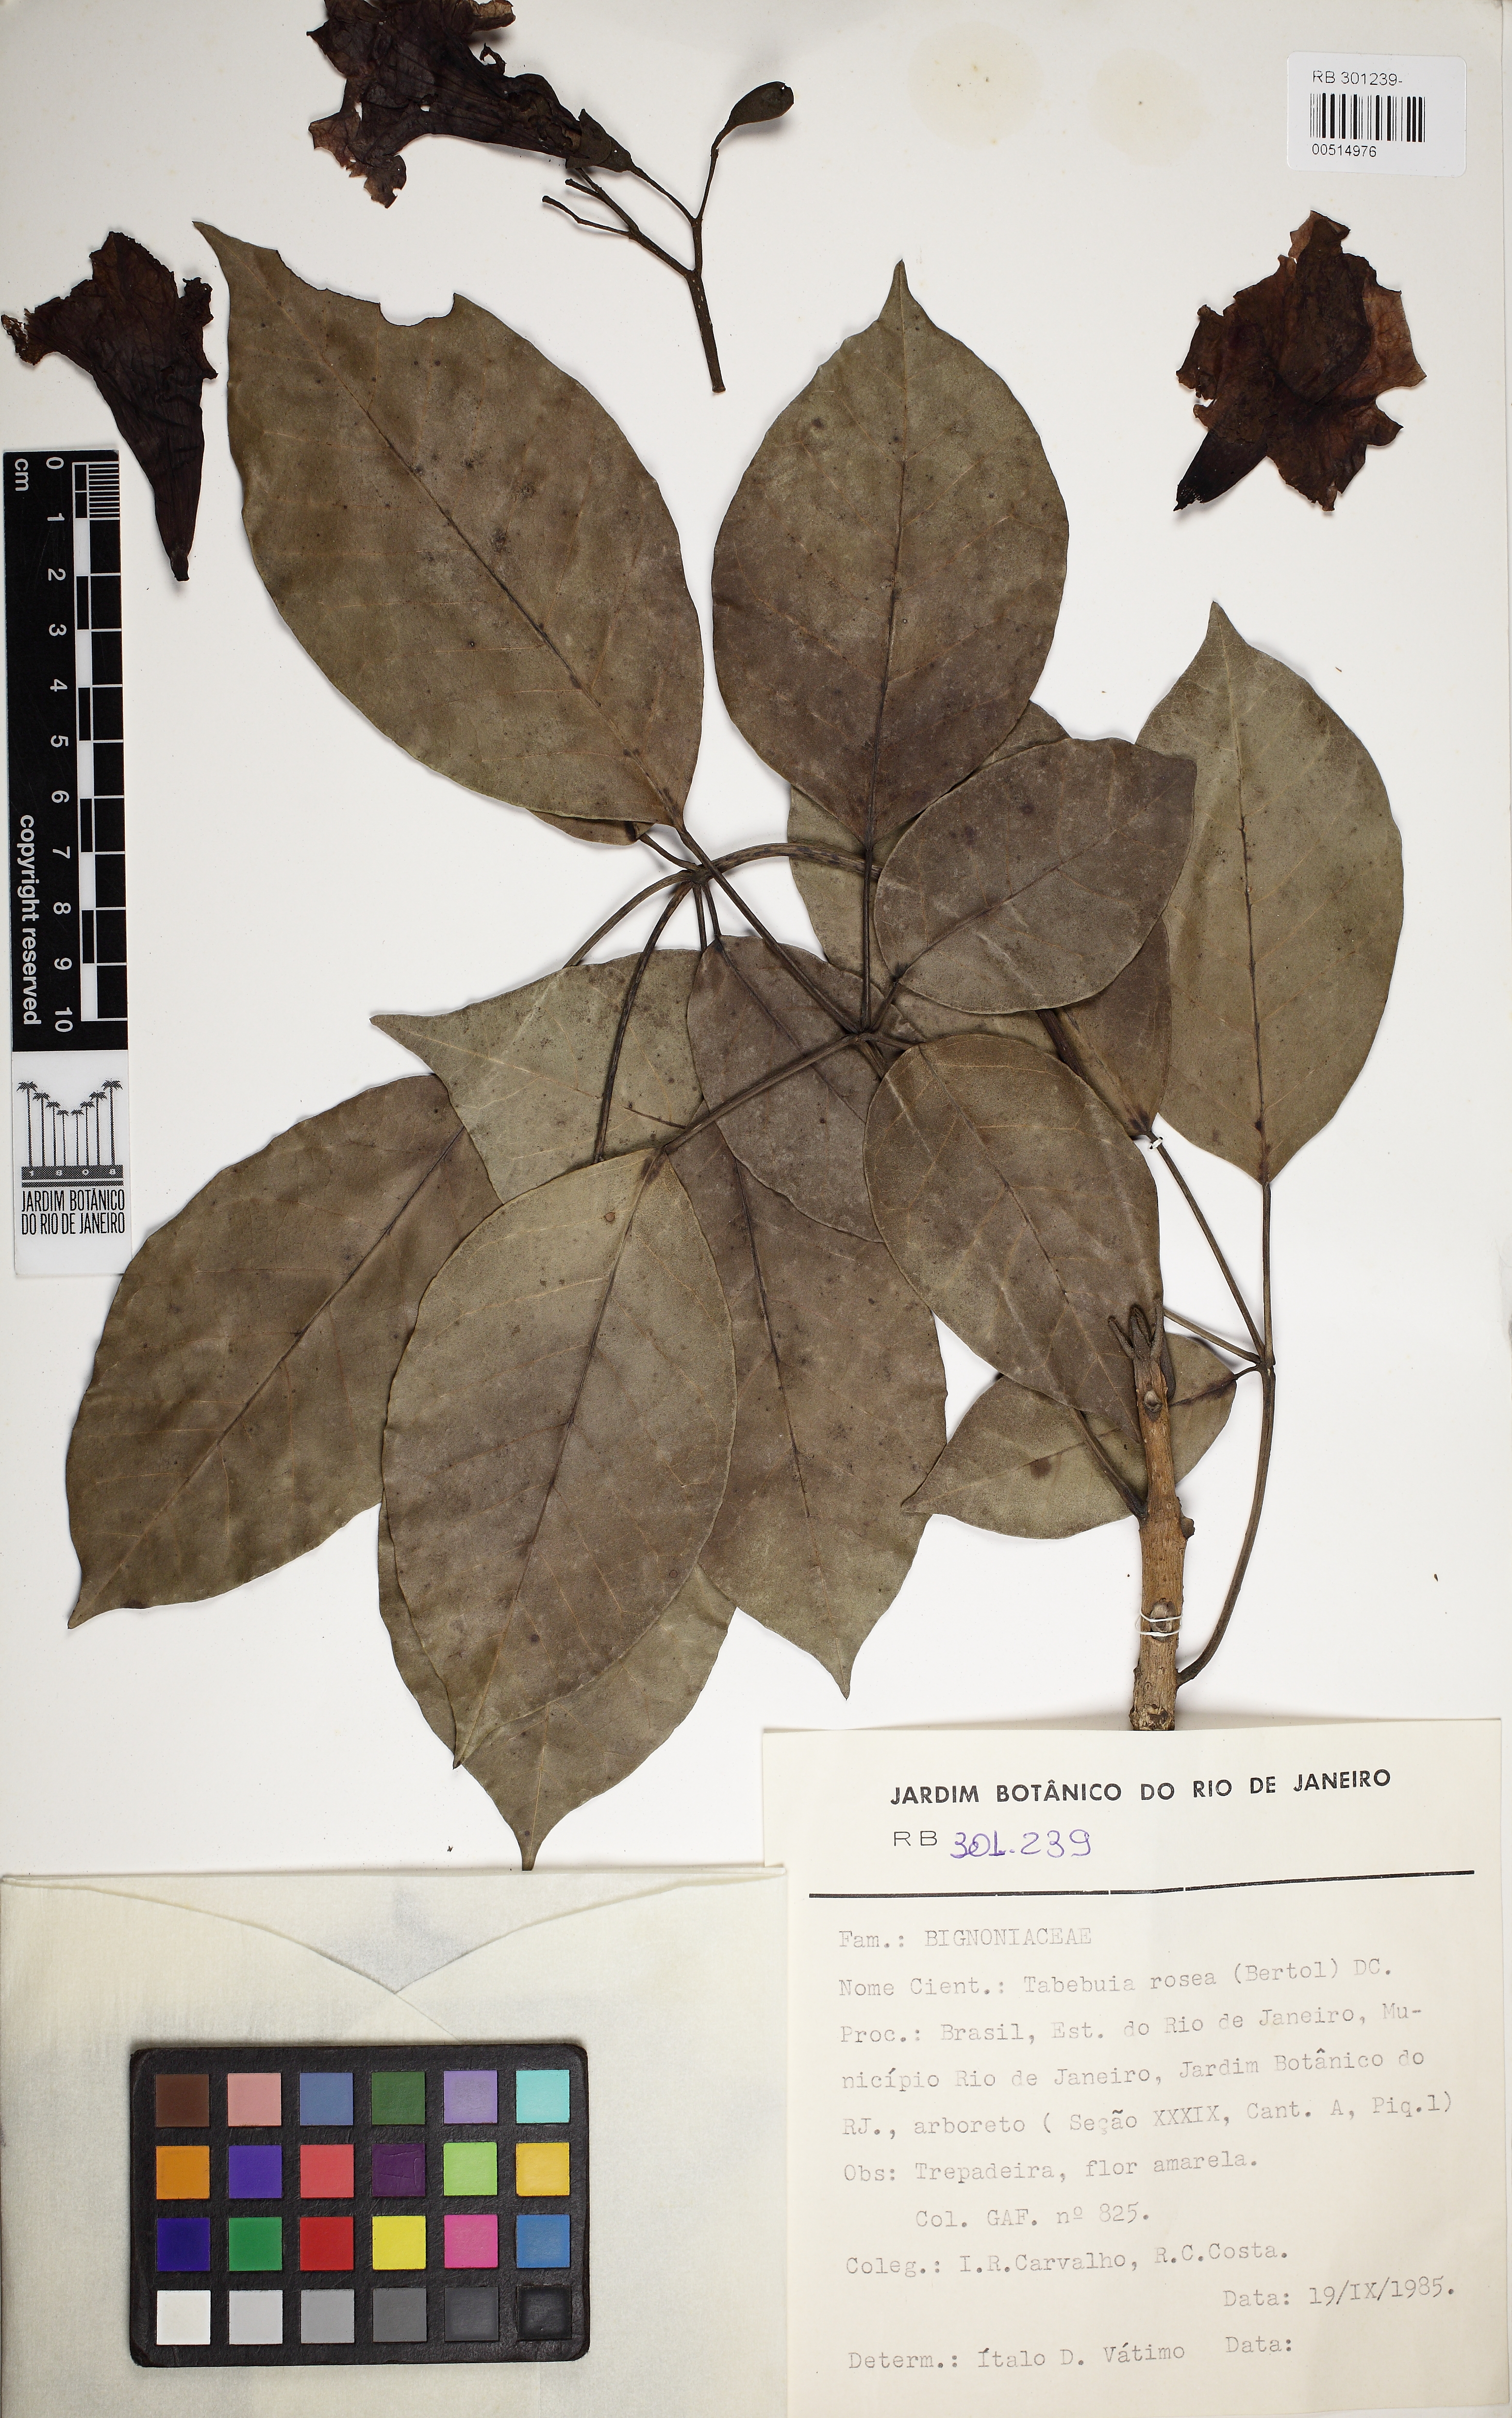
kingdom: Plantae
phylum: Tracheophyta
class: Magnoliopsida
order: Lamiales
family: Bignoniaceae
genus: Tabebuia
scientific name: Tabebuia rosea
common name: Pink poui
